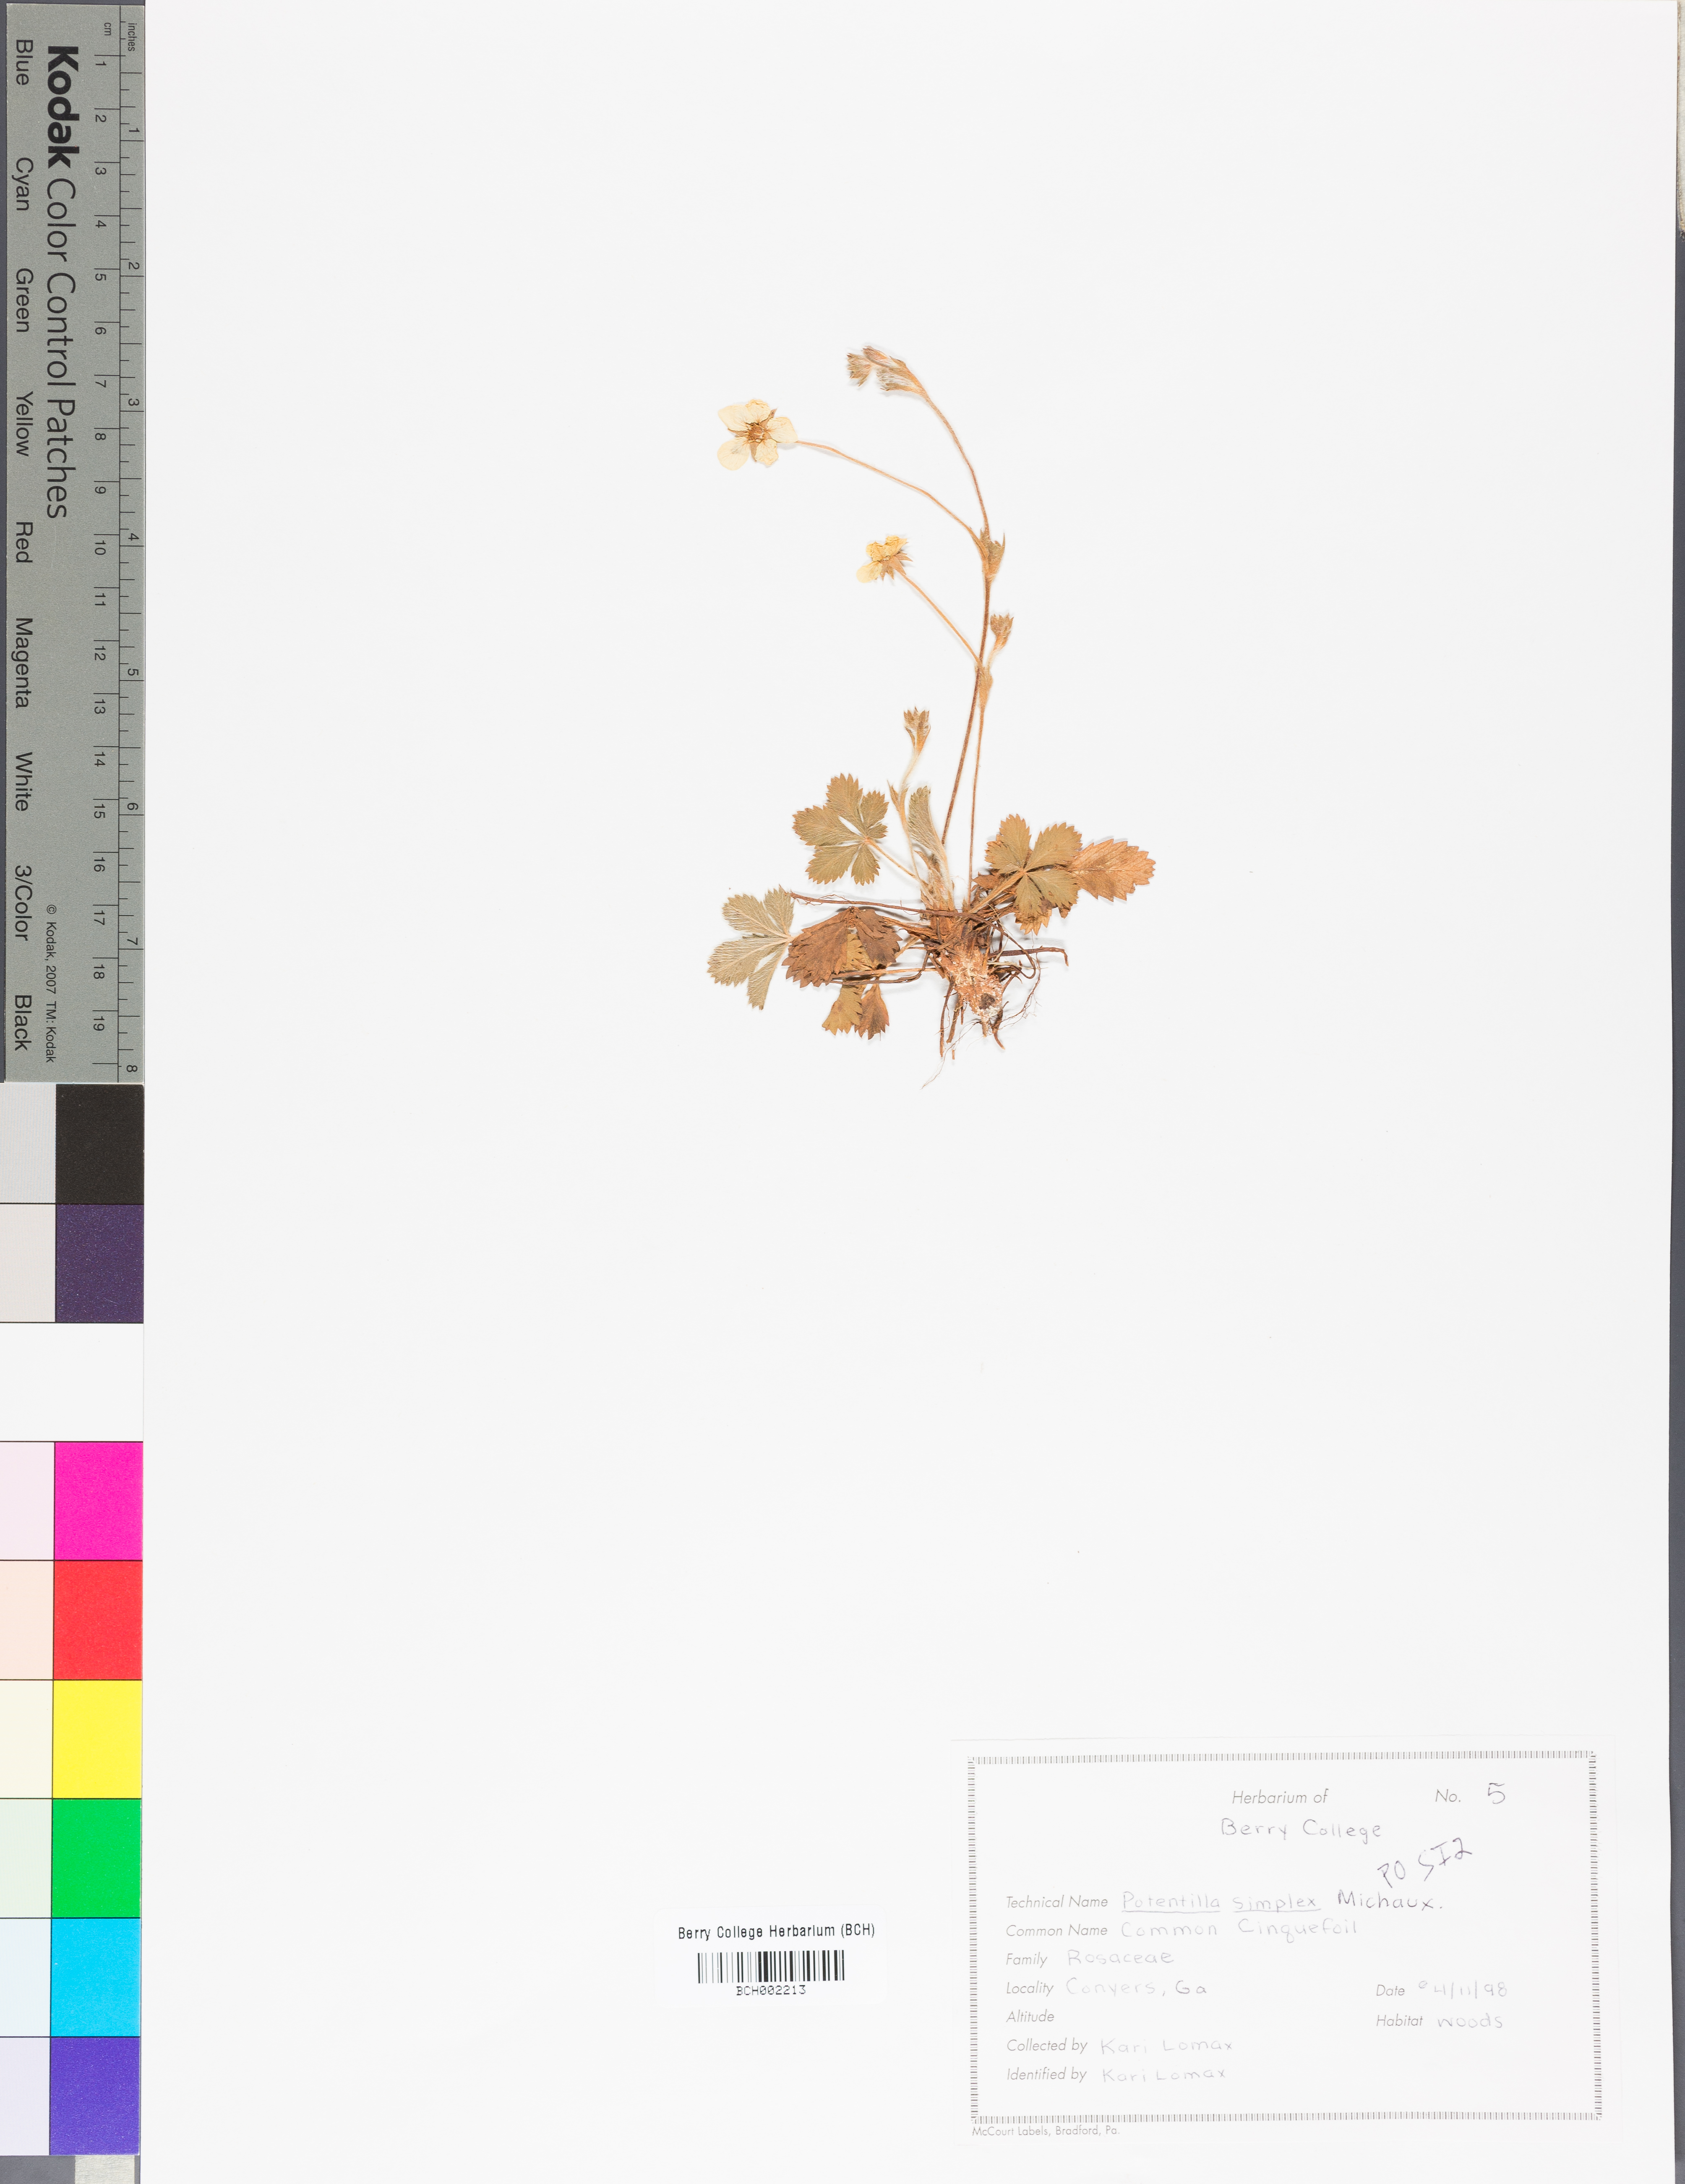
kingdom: Plantae
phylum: Tracheophyta
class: Magnoliopsida
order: Rosales
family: Rosaceae
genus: Potentilla
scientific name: Potentilla simplex
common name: Old field cinquefoil
